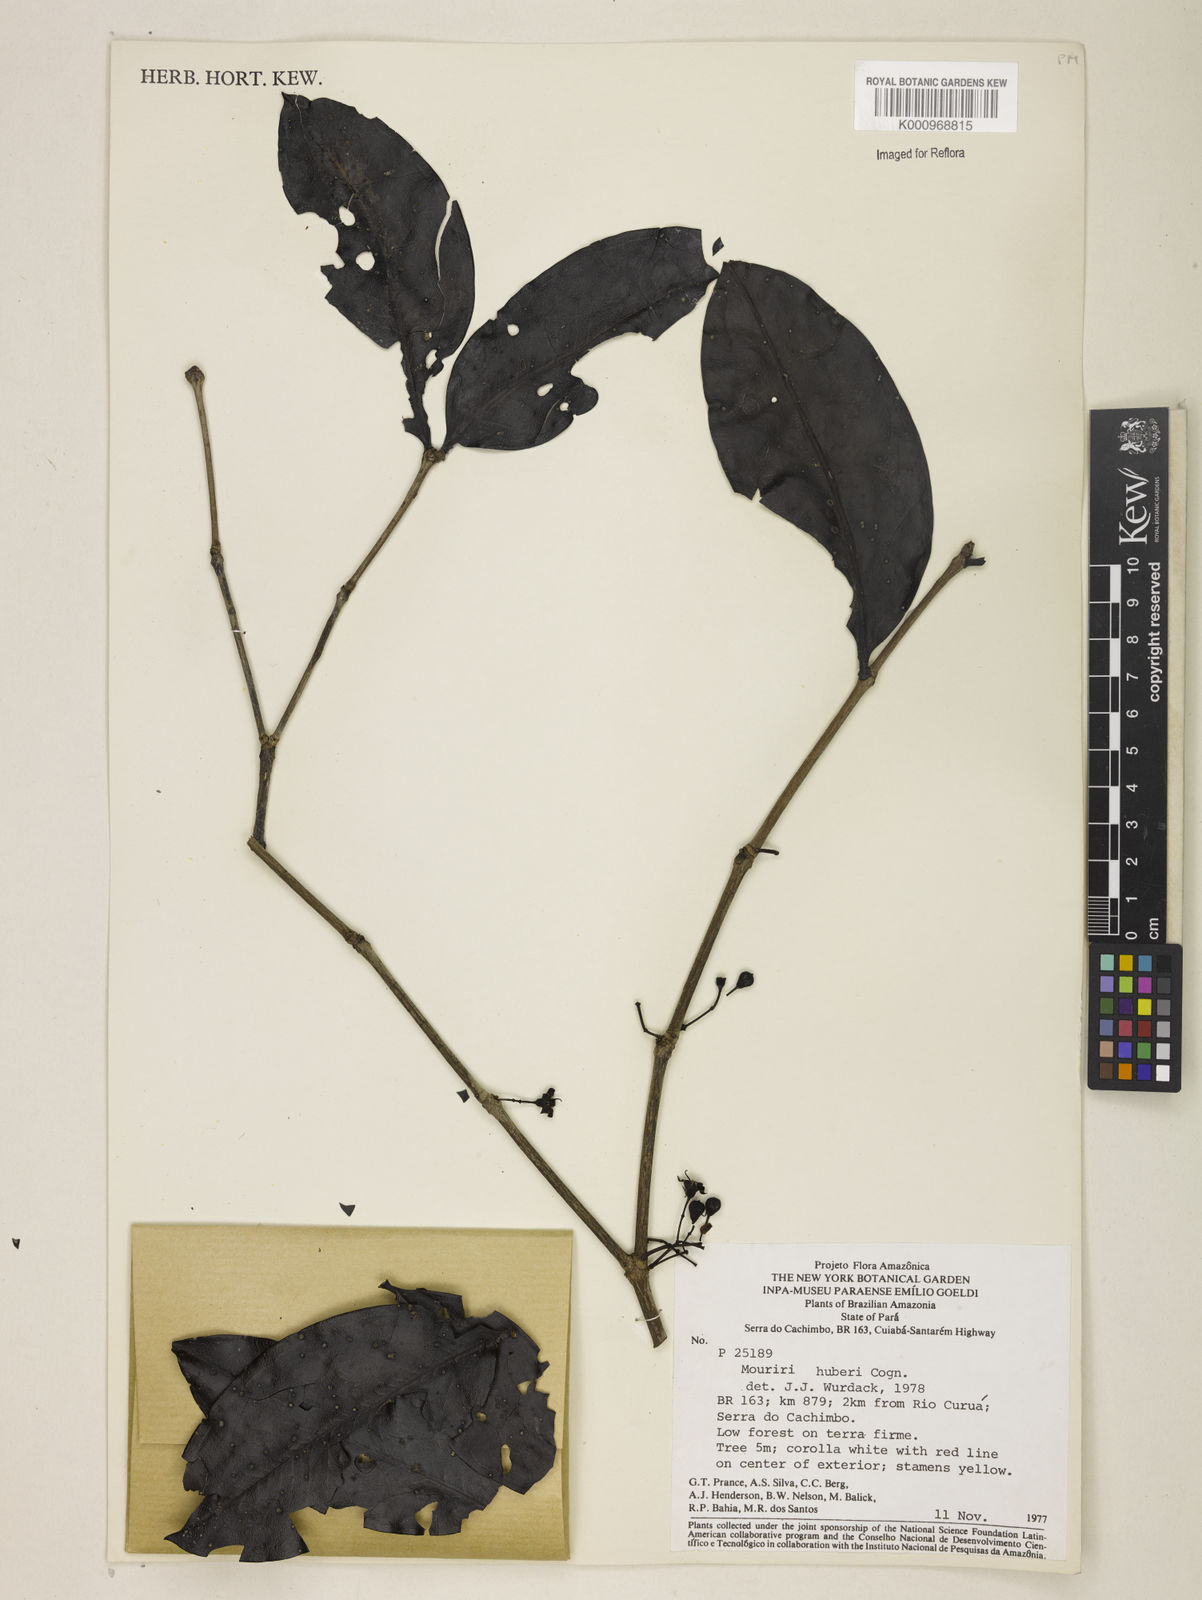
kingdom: Plantae
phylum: Tracheophyta
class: Magnoliopsida
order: Myrtales
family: Melastomataceae
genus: Mouriri
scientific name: Mouriri huberi
